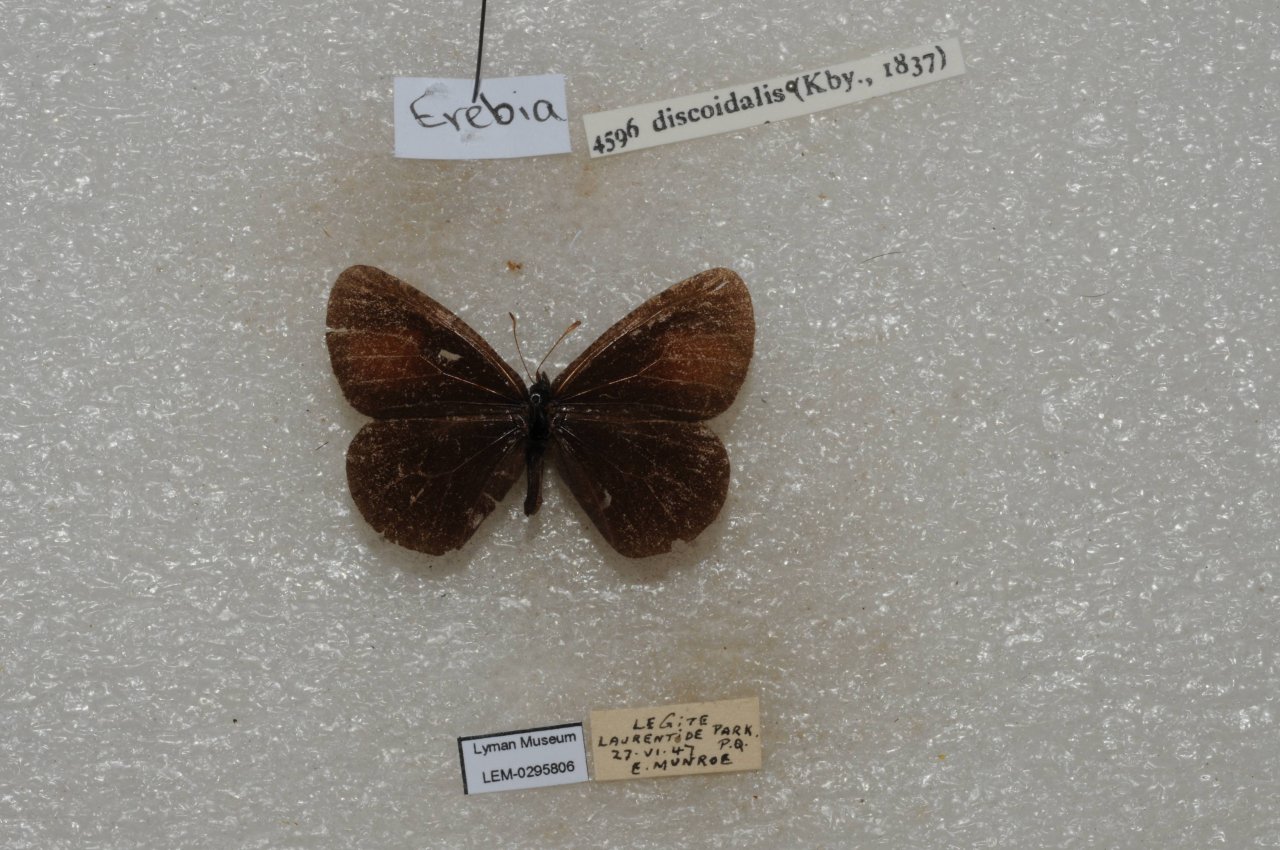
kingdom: Animalia
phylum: Arthropoda
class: Insecta
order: Lepidoptera
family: Nymphalidae
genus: Erebia
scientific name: Erebia discoidalis
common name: Red-disked Alpine
